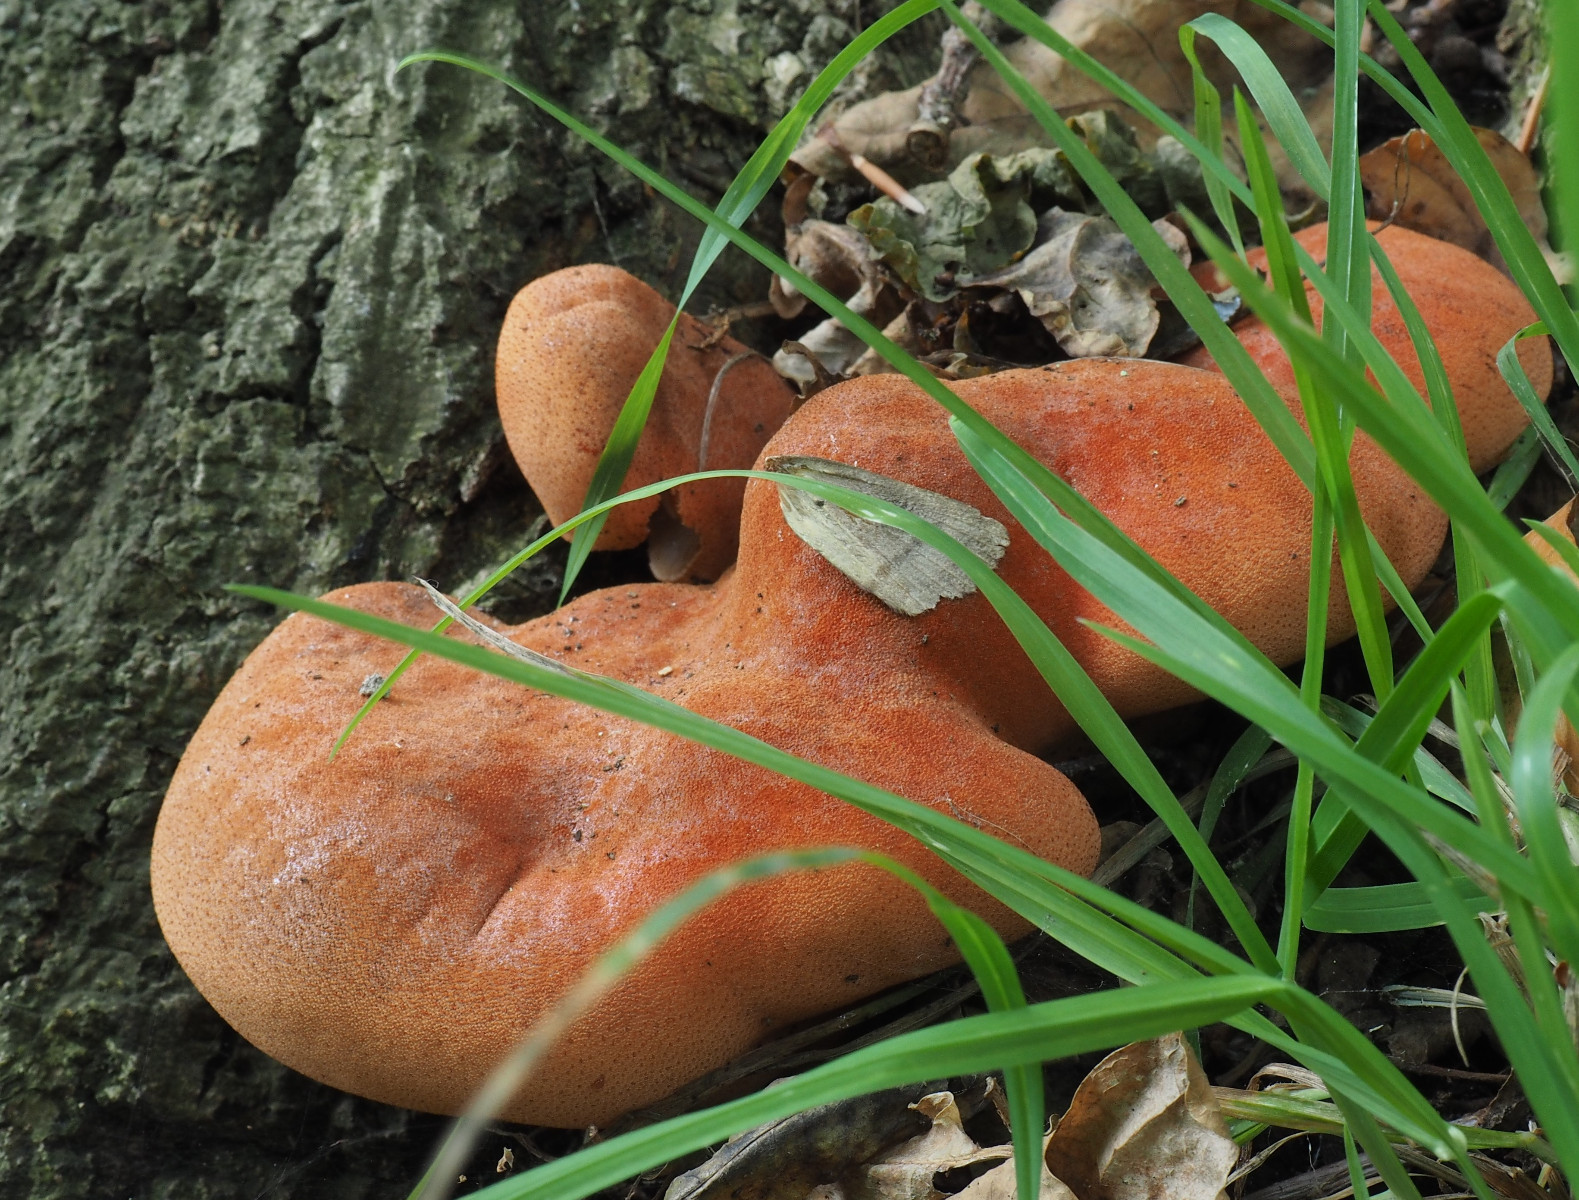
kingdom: Fungi
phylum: Basidiomycota
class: Agaricomycetes
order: Agaricales
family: Fistulinaceae
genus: Fistulina
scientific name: Fistulina hepatica
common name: oksetunge
